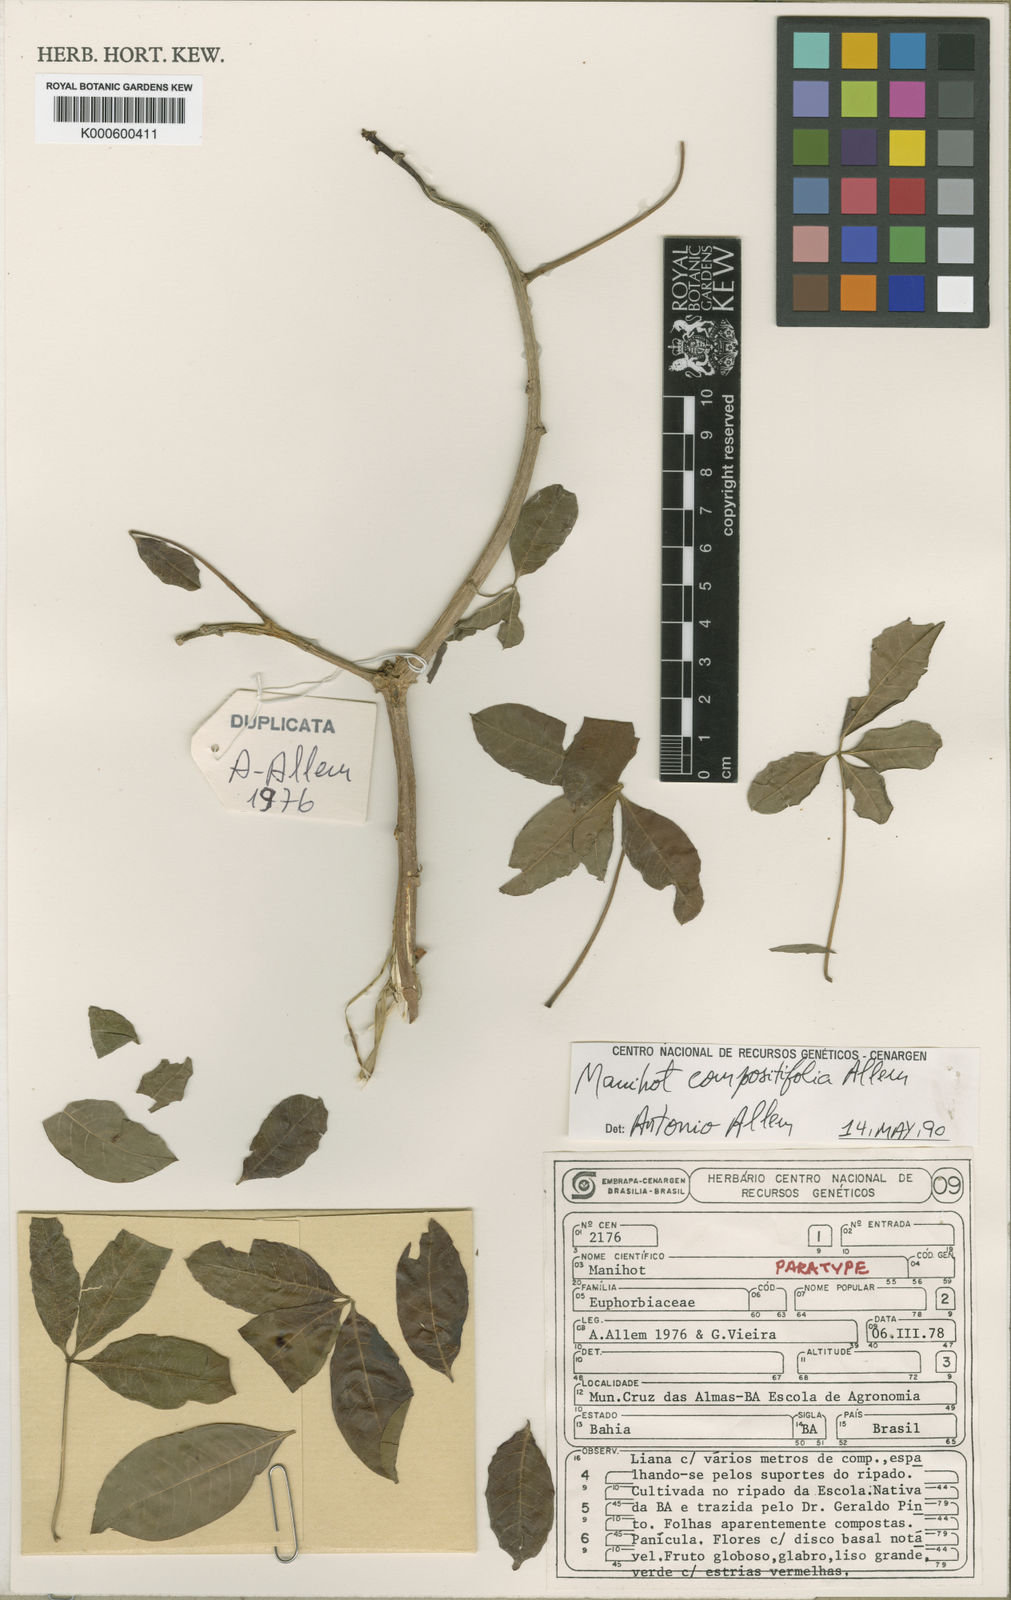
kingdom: Plantae
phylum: Tracheophyta
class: Magnoliopsida
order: Malpighiales
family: Euphorbiaceae
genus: Manihot
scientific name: Manihot compositifolia
